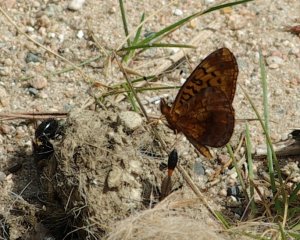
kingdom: Animalia
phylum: Arthropoda
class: Insecta
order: Lepidoptera
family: Nymphalidae
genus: Clossiana
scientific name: Clossiana toddi
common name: Meadow Fritillary
